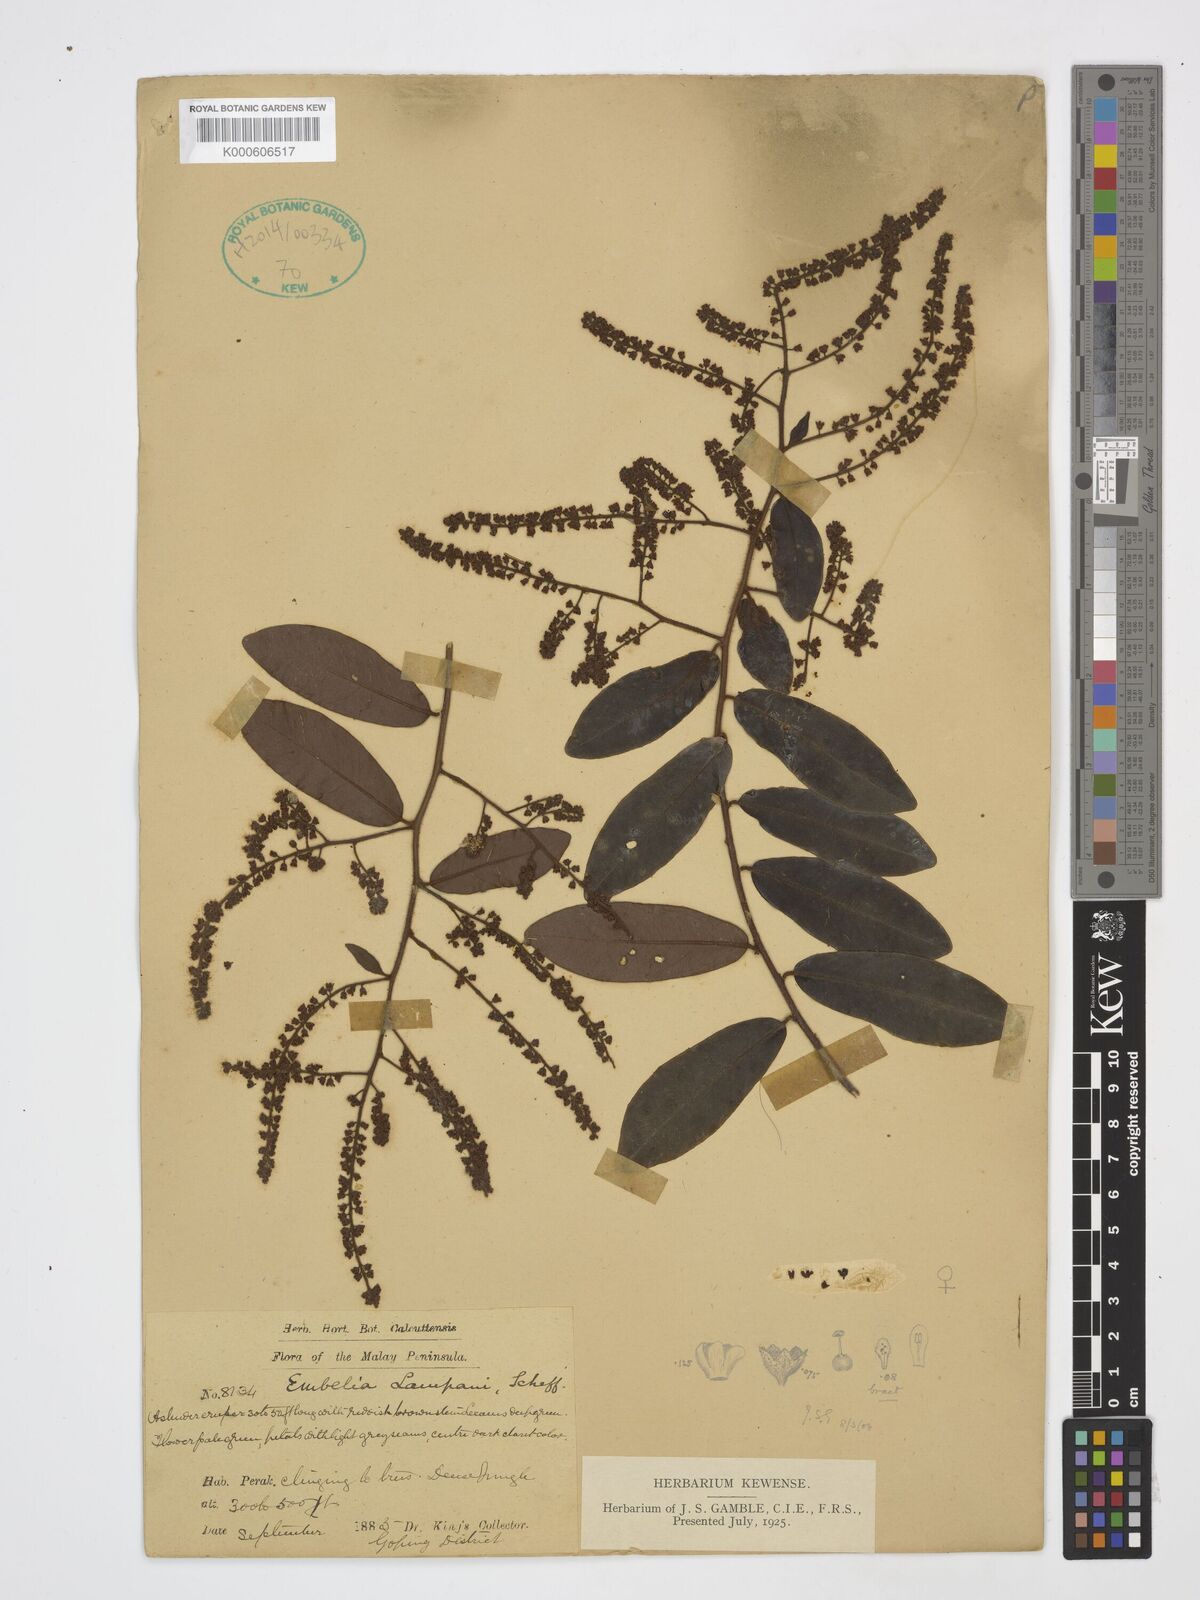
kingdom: Plantae
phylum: Tracheophyta
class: Magnoliopsida
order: Ericales
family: Primulaceae
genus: Grenacheria
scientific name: Grenacheria lampani
